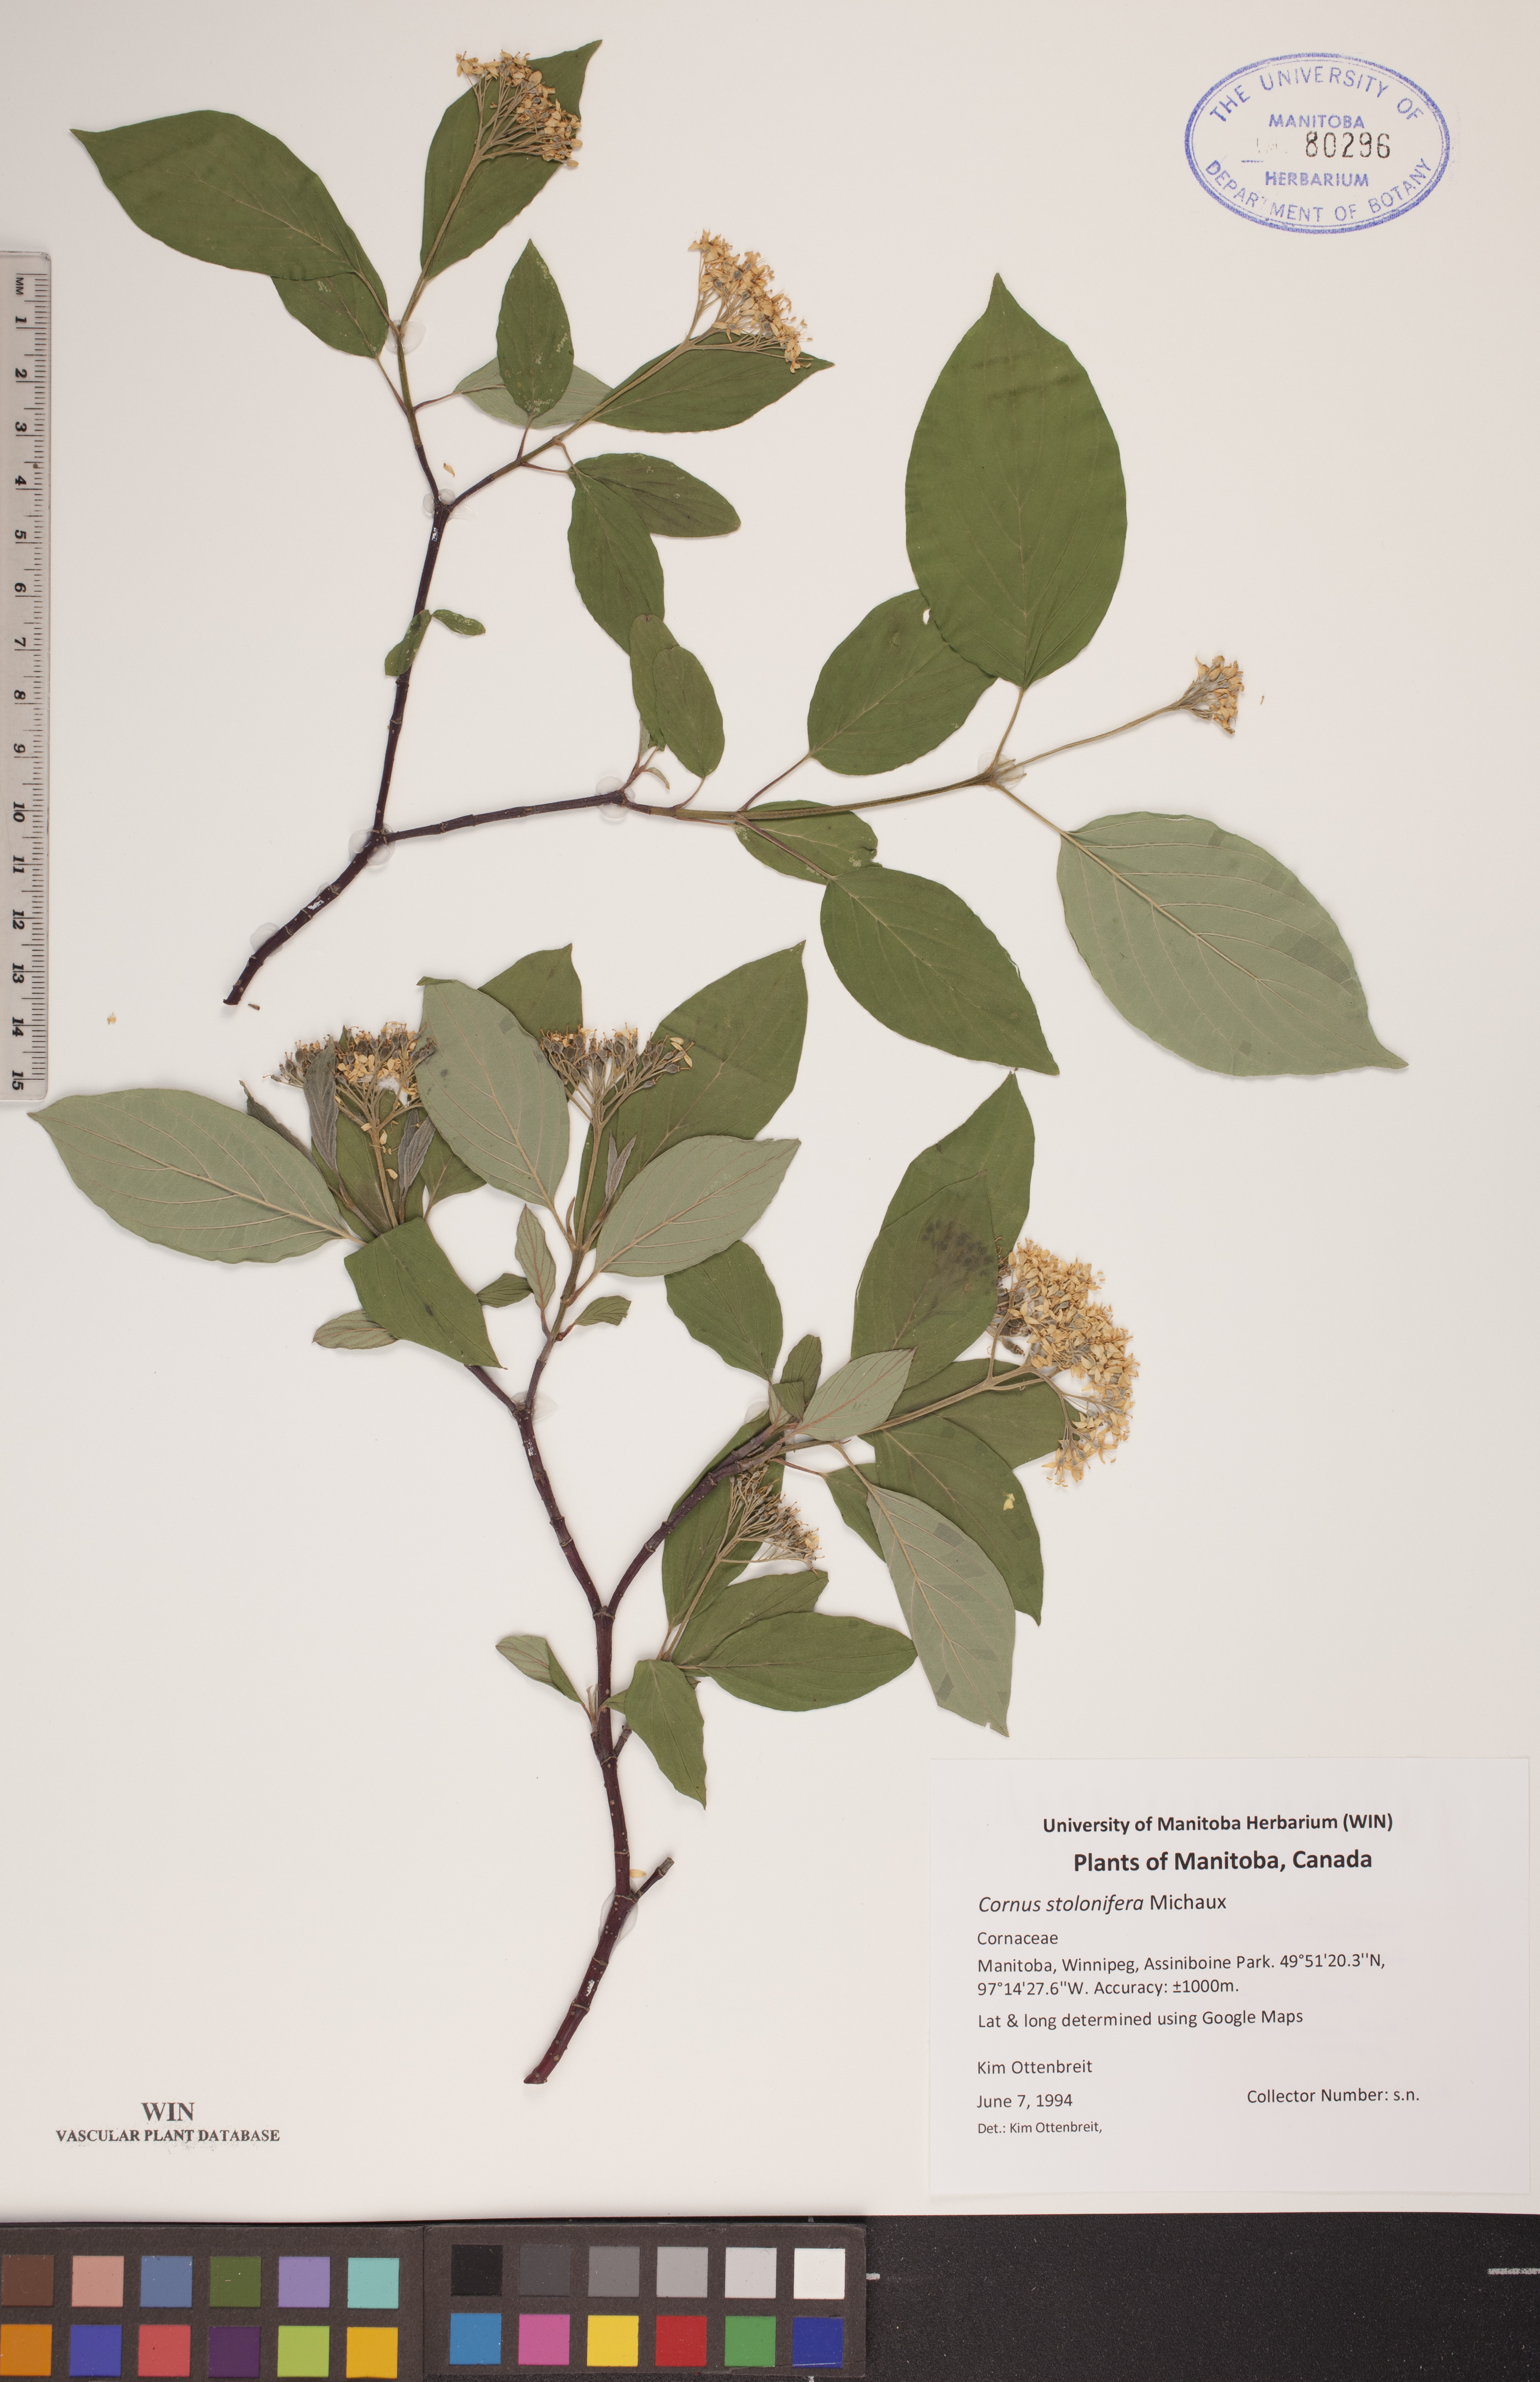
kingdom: Plantae
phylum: Tracheophyta
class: Magnoliopsida
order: Cornales
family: Cornaceae
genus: Cornus
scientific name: Cornus sericea
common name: Red-osier dogwood
